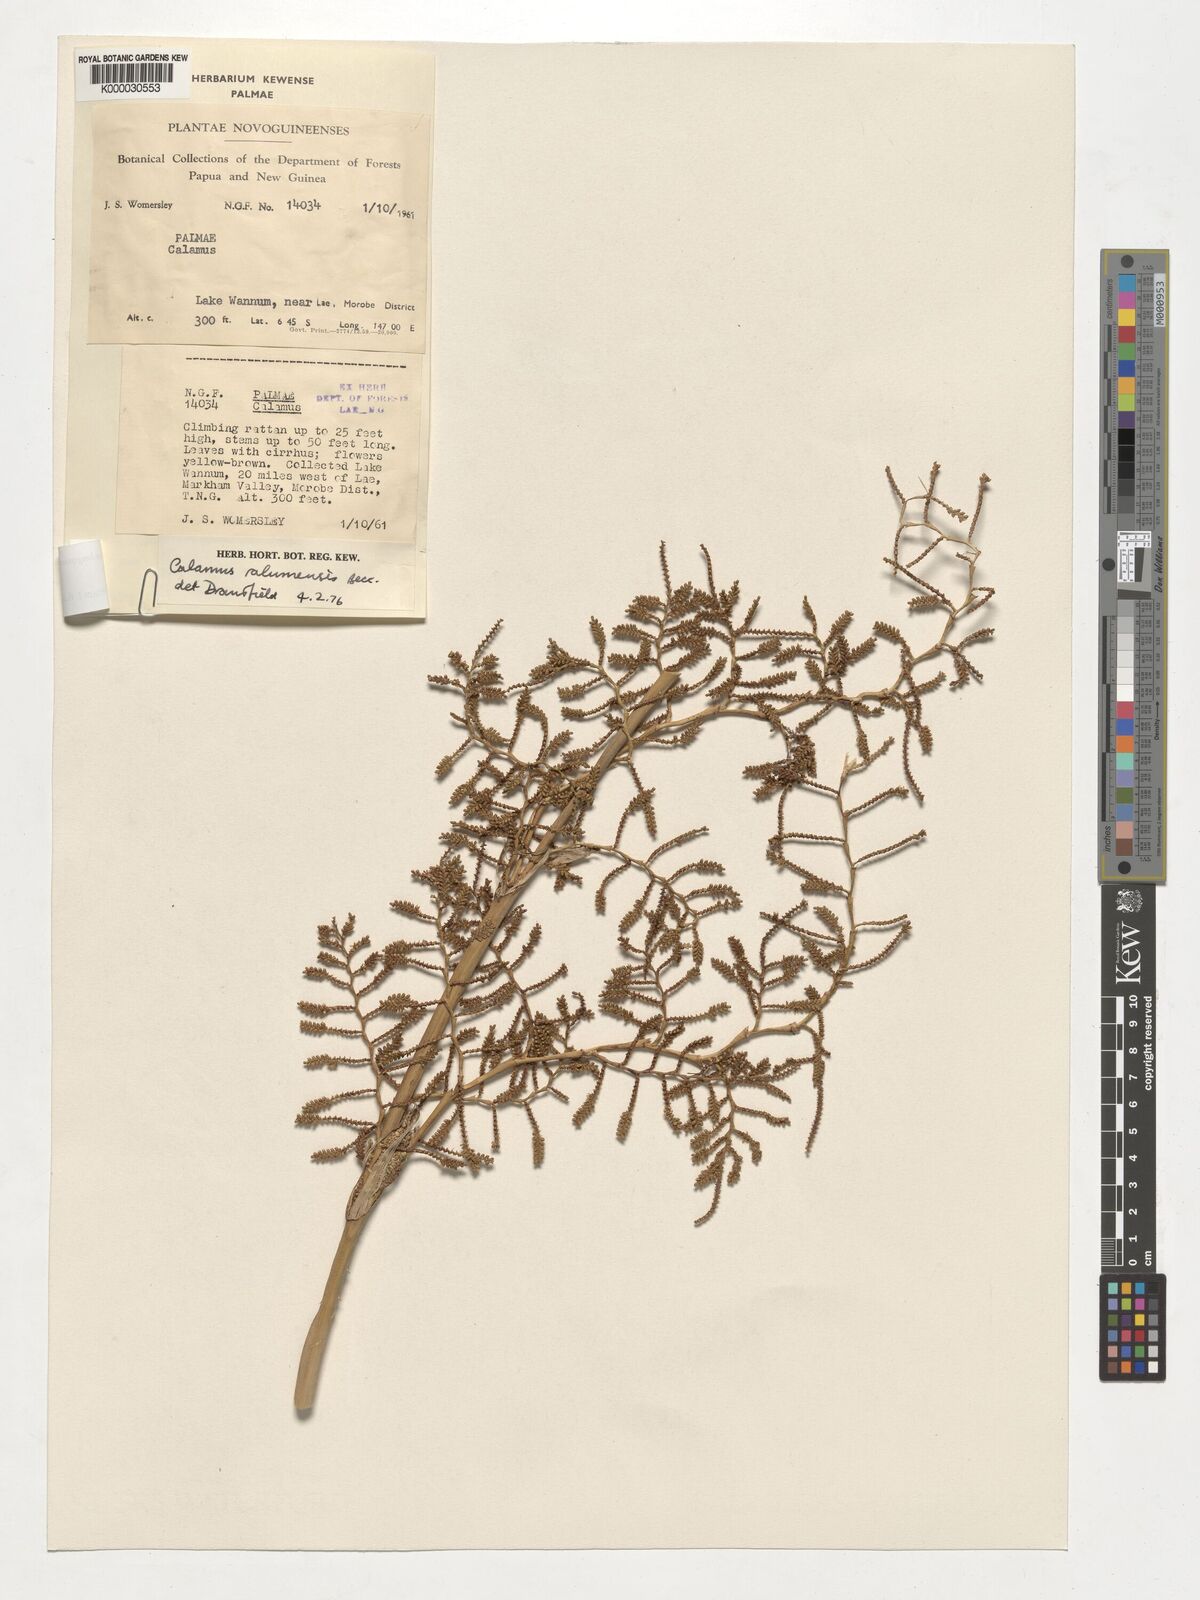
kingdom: Plantae
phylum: Tracheophyta
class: Liliopsida
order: Arecales
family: Arecaceae
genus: Calamus
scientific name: Calamus longipinna
